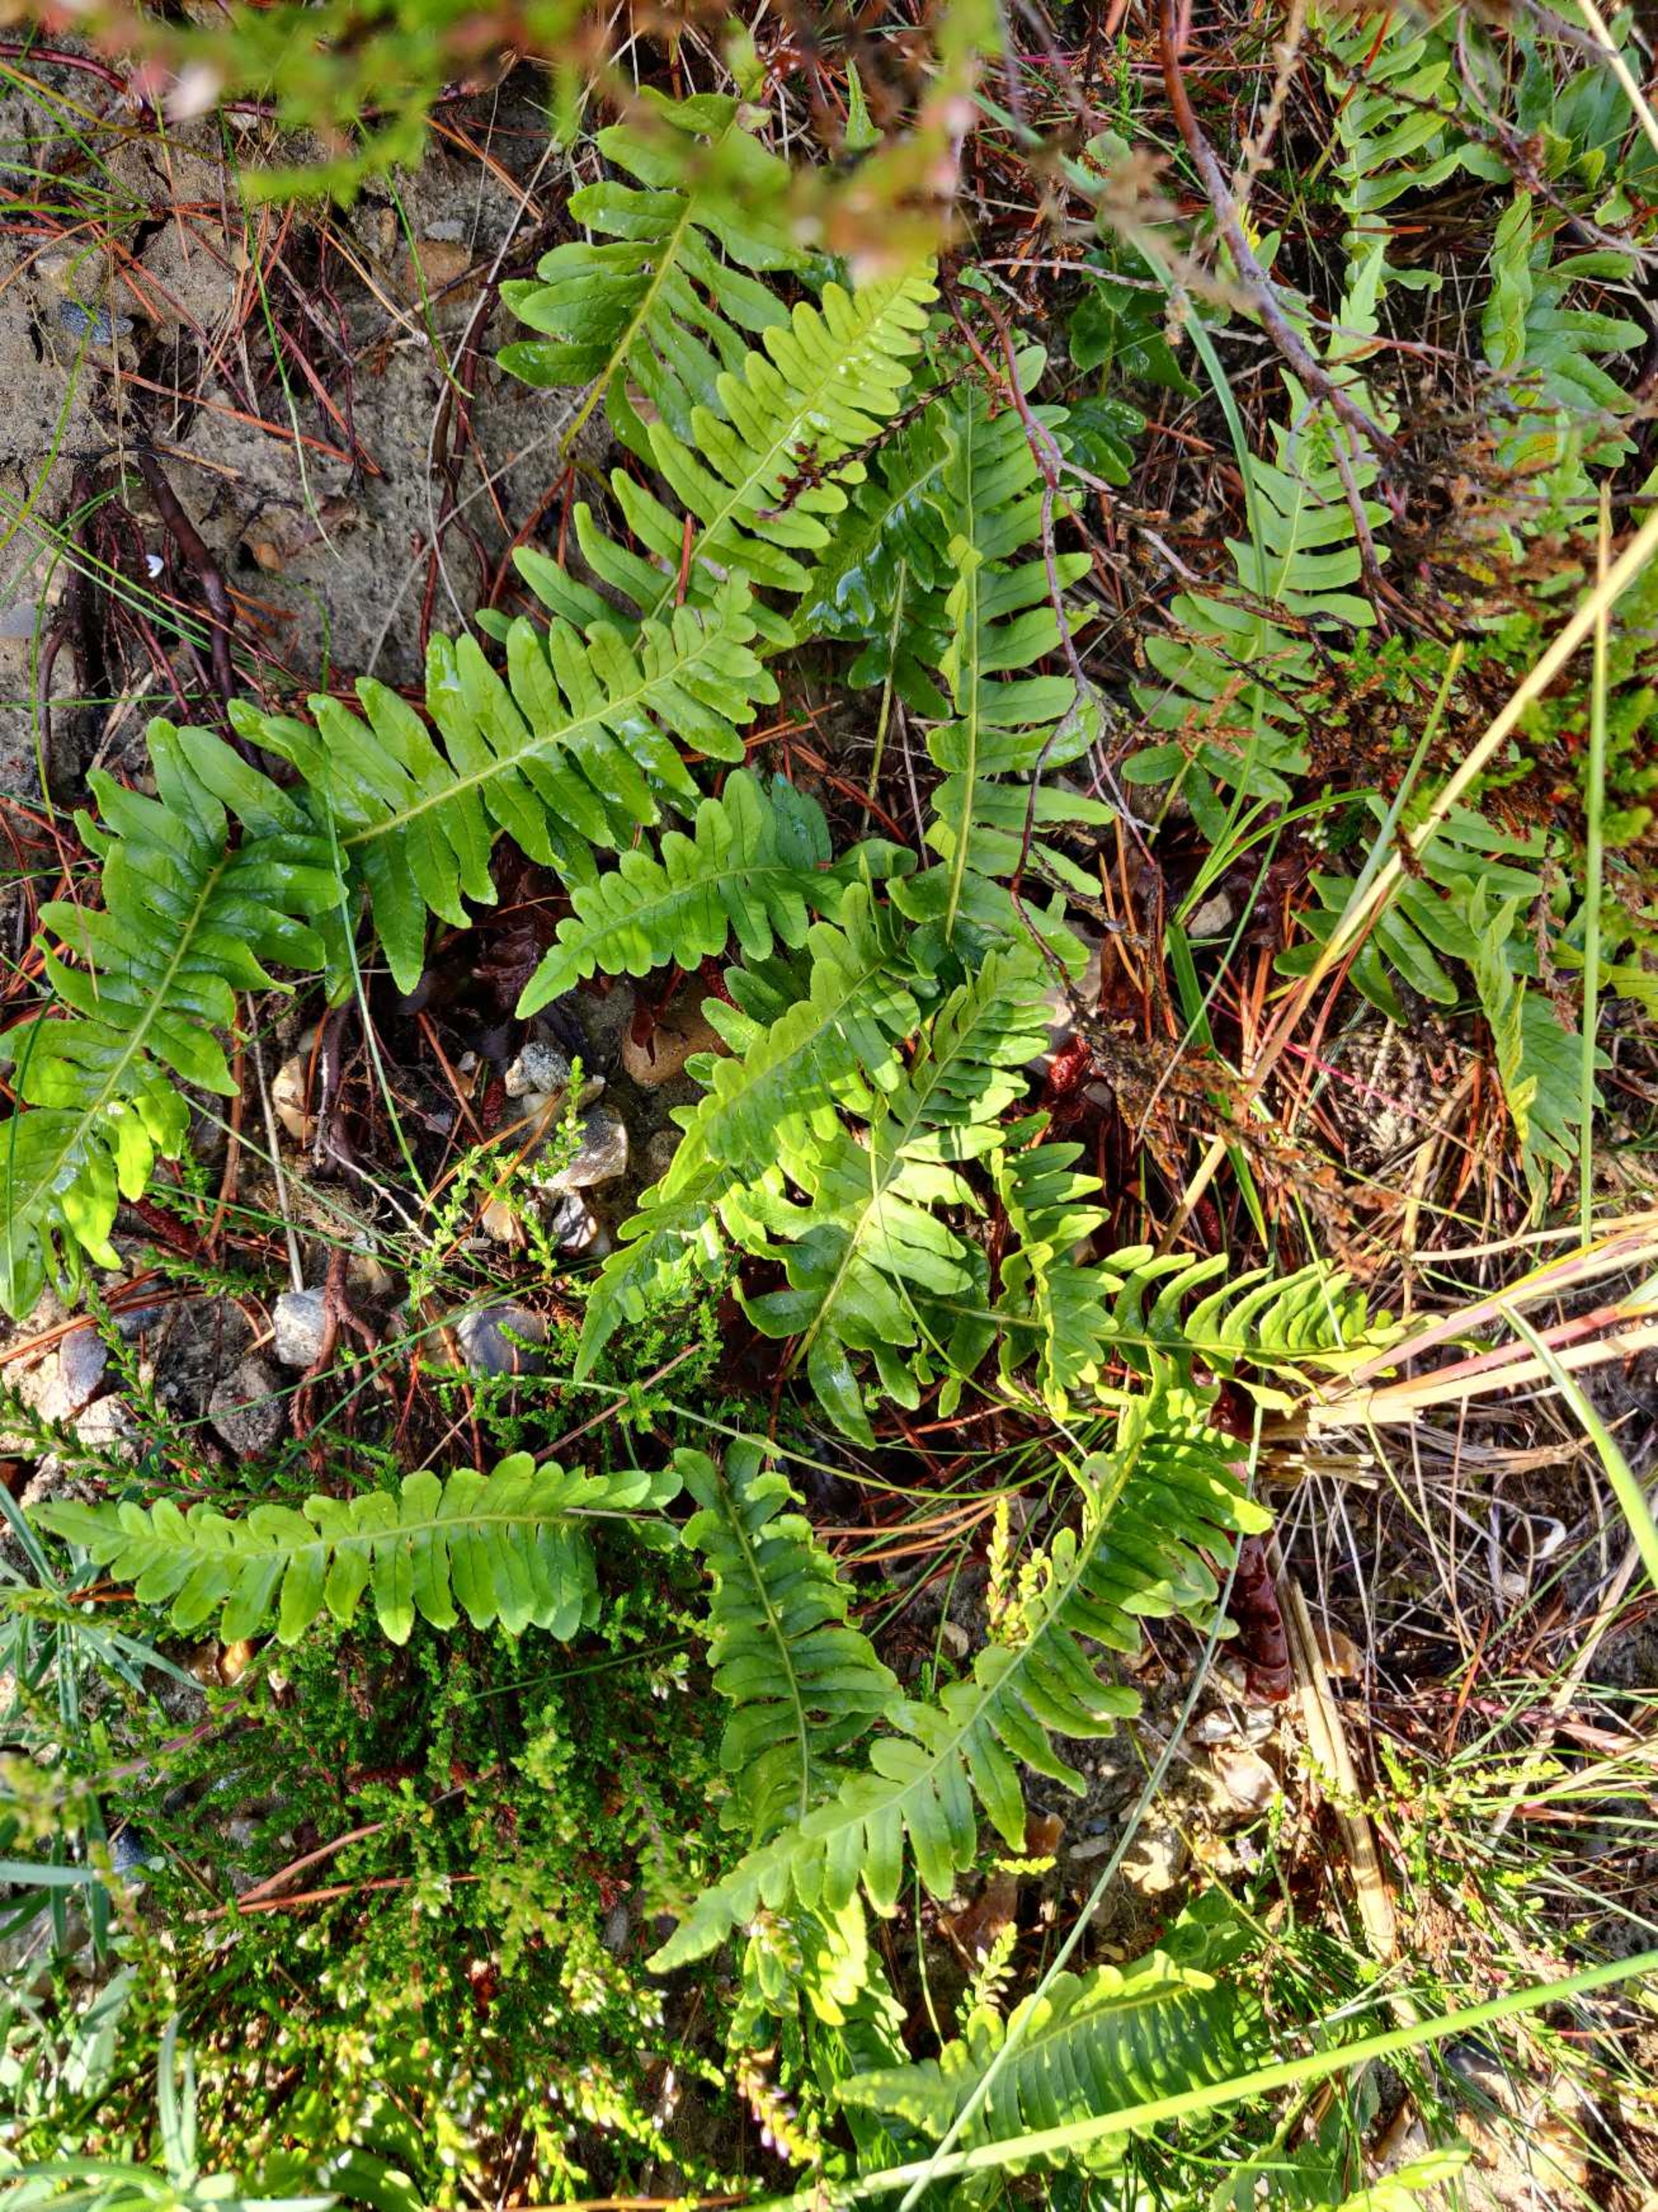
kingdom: Plantae
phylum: Tracheophyta
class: Polypodiopsida
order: Polypodiales
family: Polypodiaceae
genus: Polypodium
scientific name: Polypodium vulgare
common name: Almindelig engelsød
